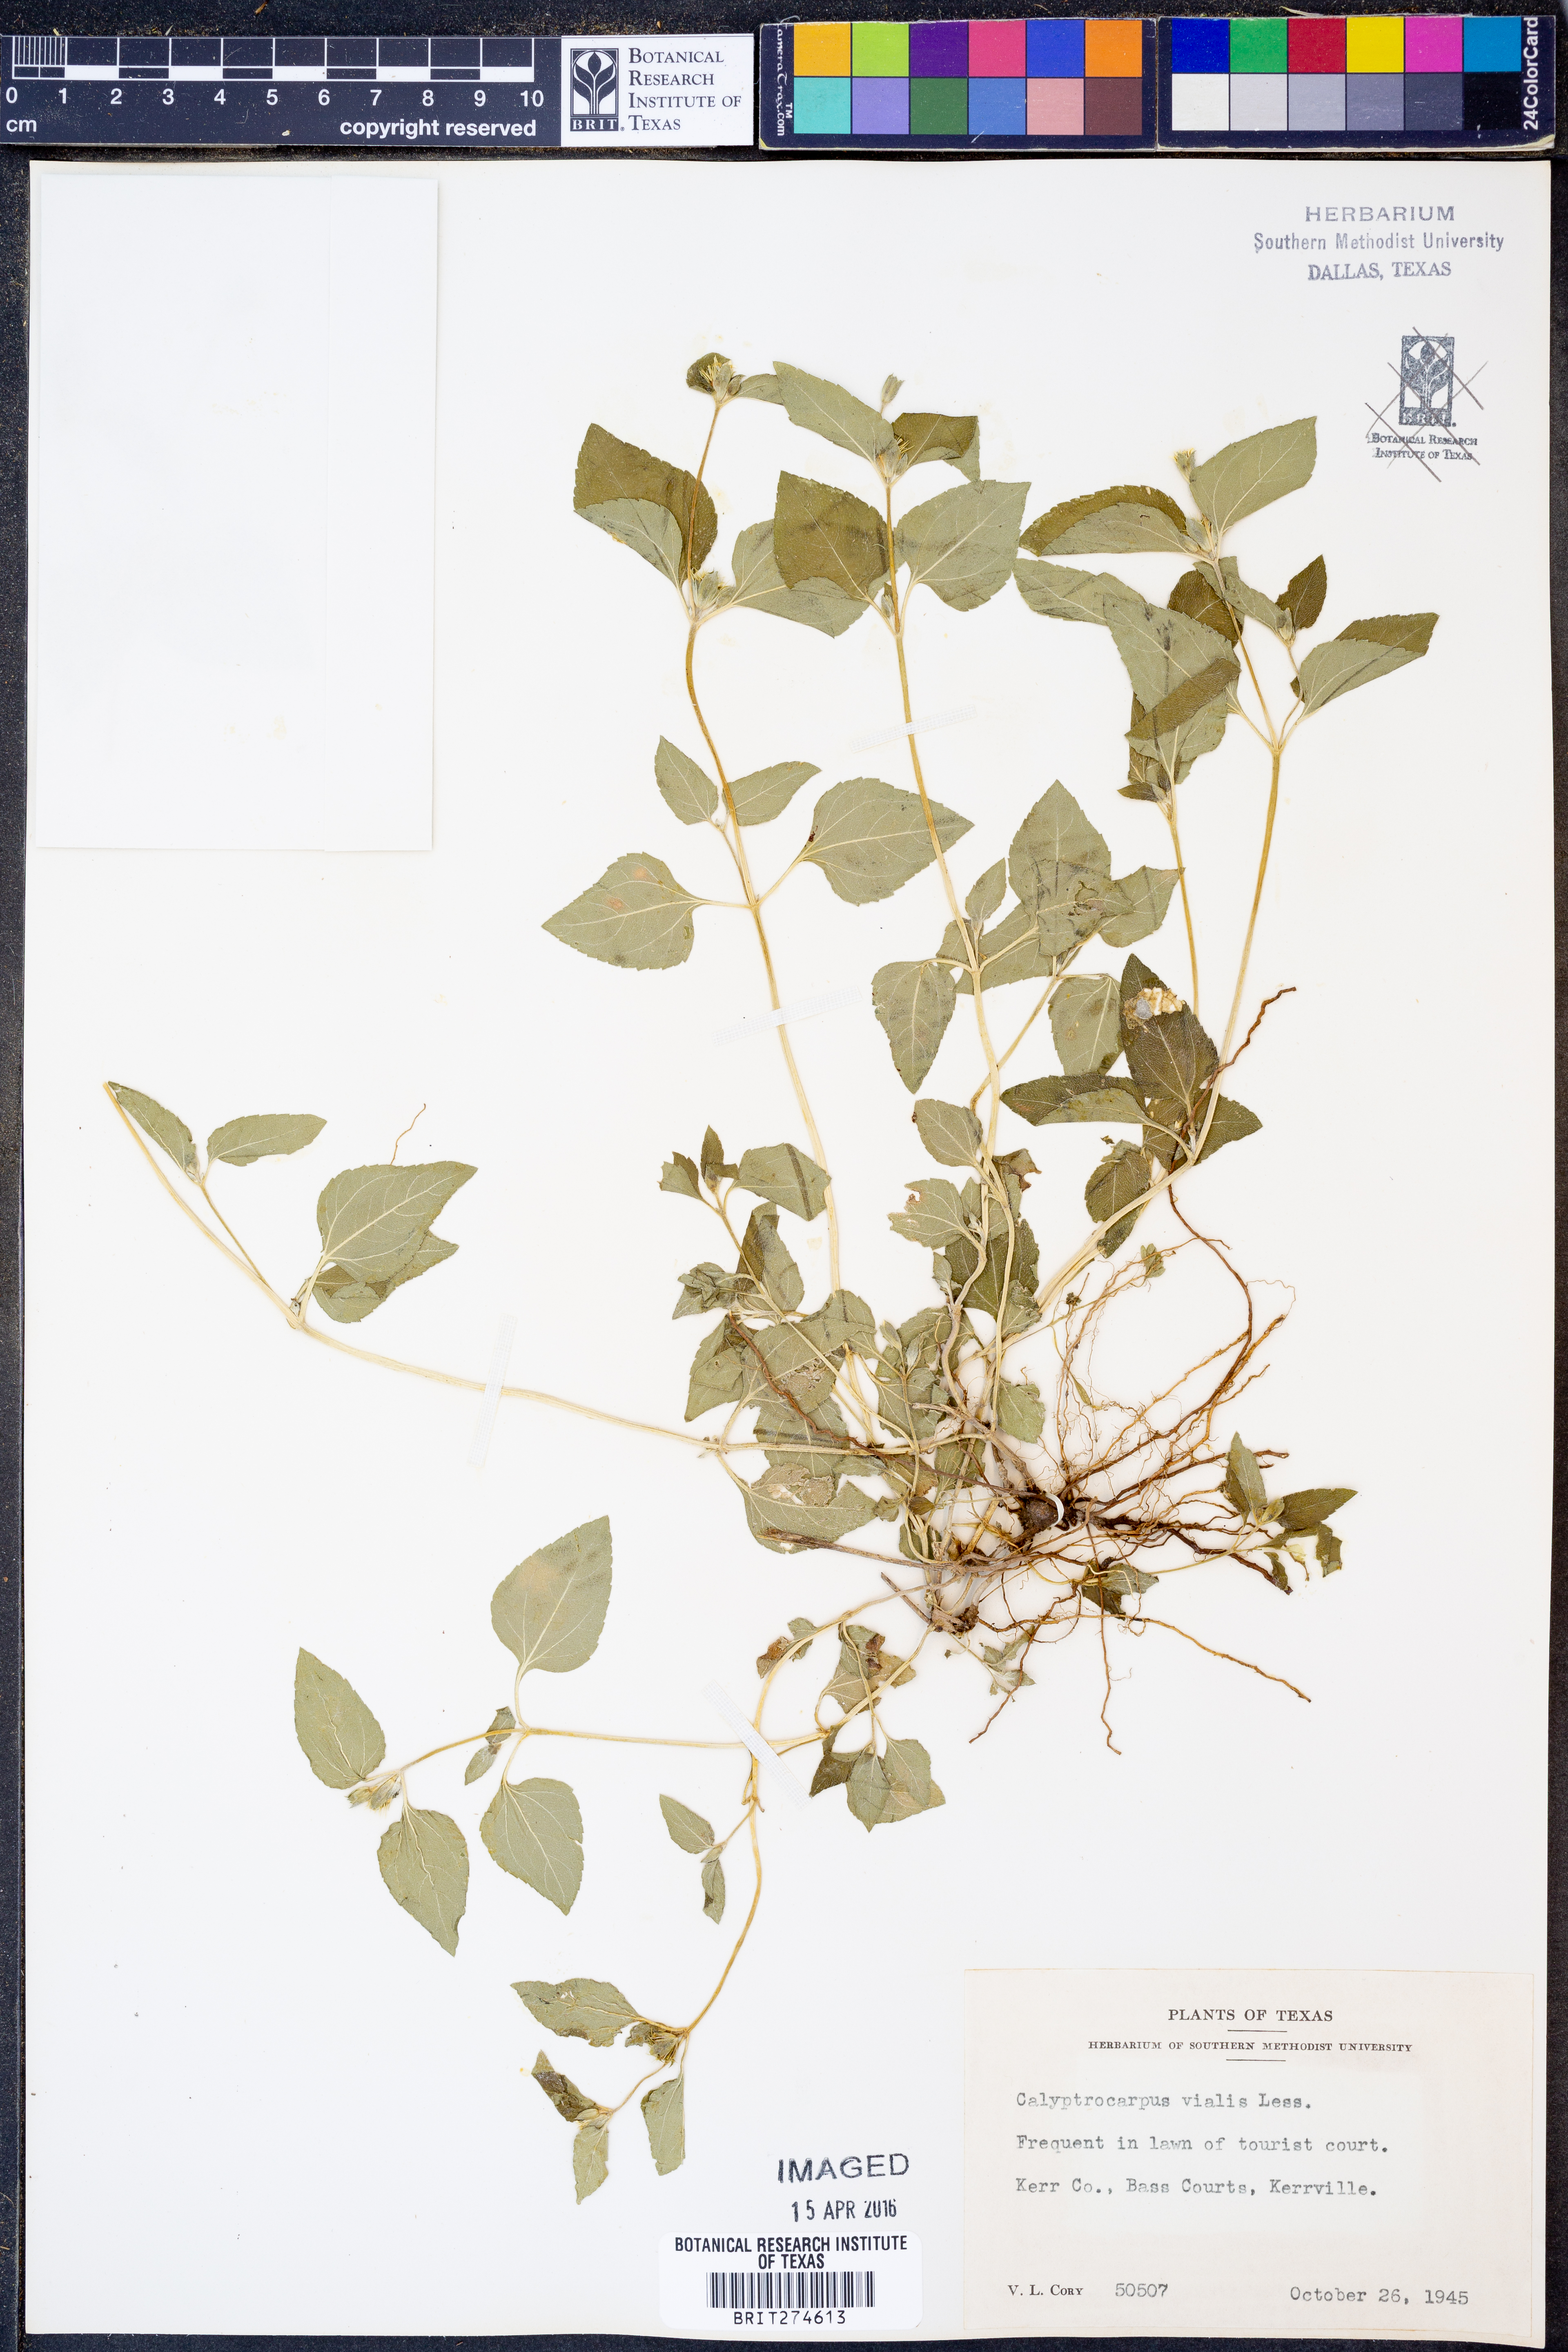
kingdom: Plantae
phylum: Tracheophyta
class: Magnoliopsida
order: Asterales
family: Asteraceae
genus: Calyptocarpus
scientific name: Calyptocarpus vialis
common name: Straggler daisy
